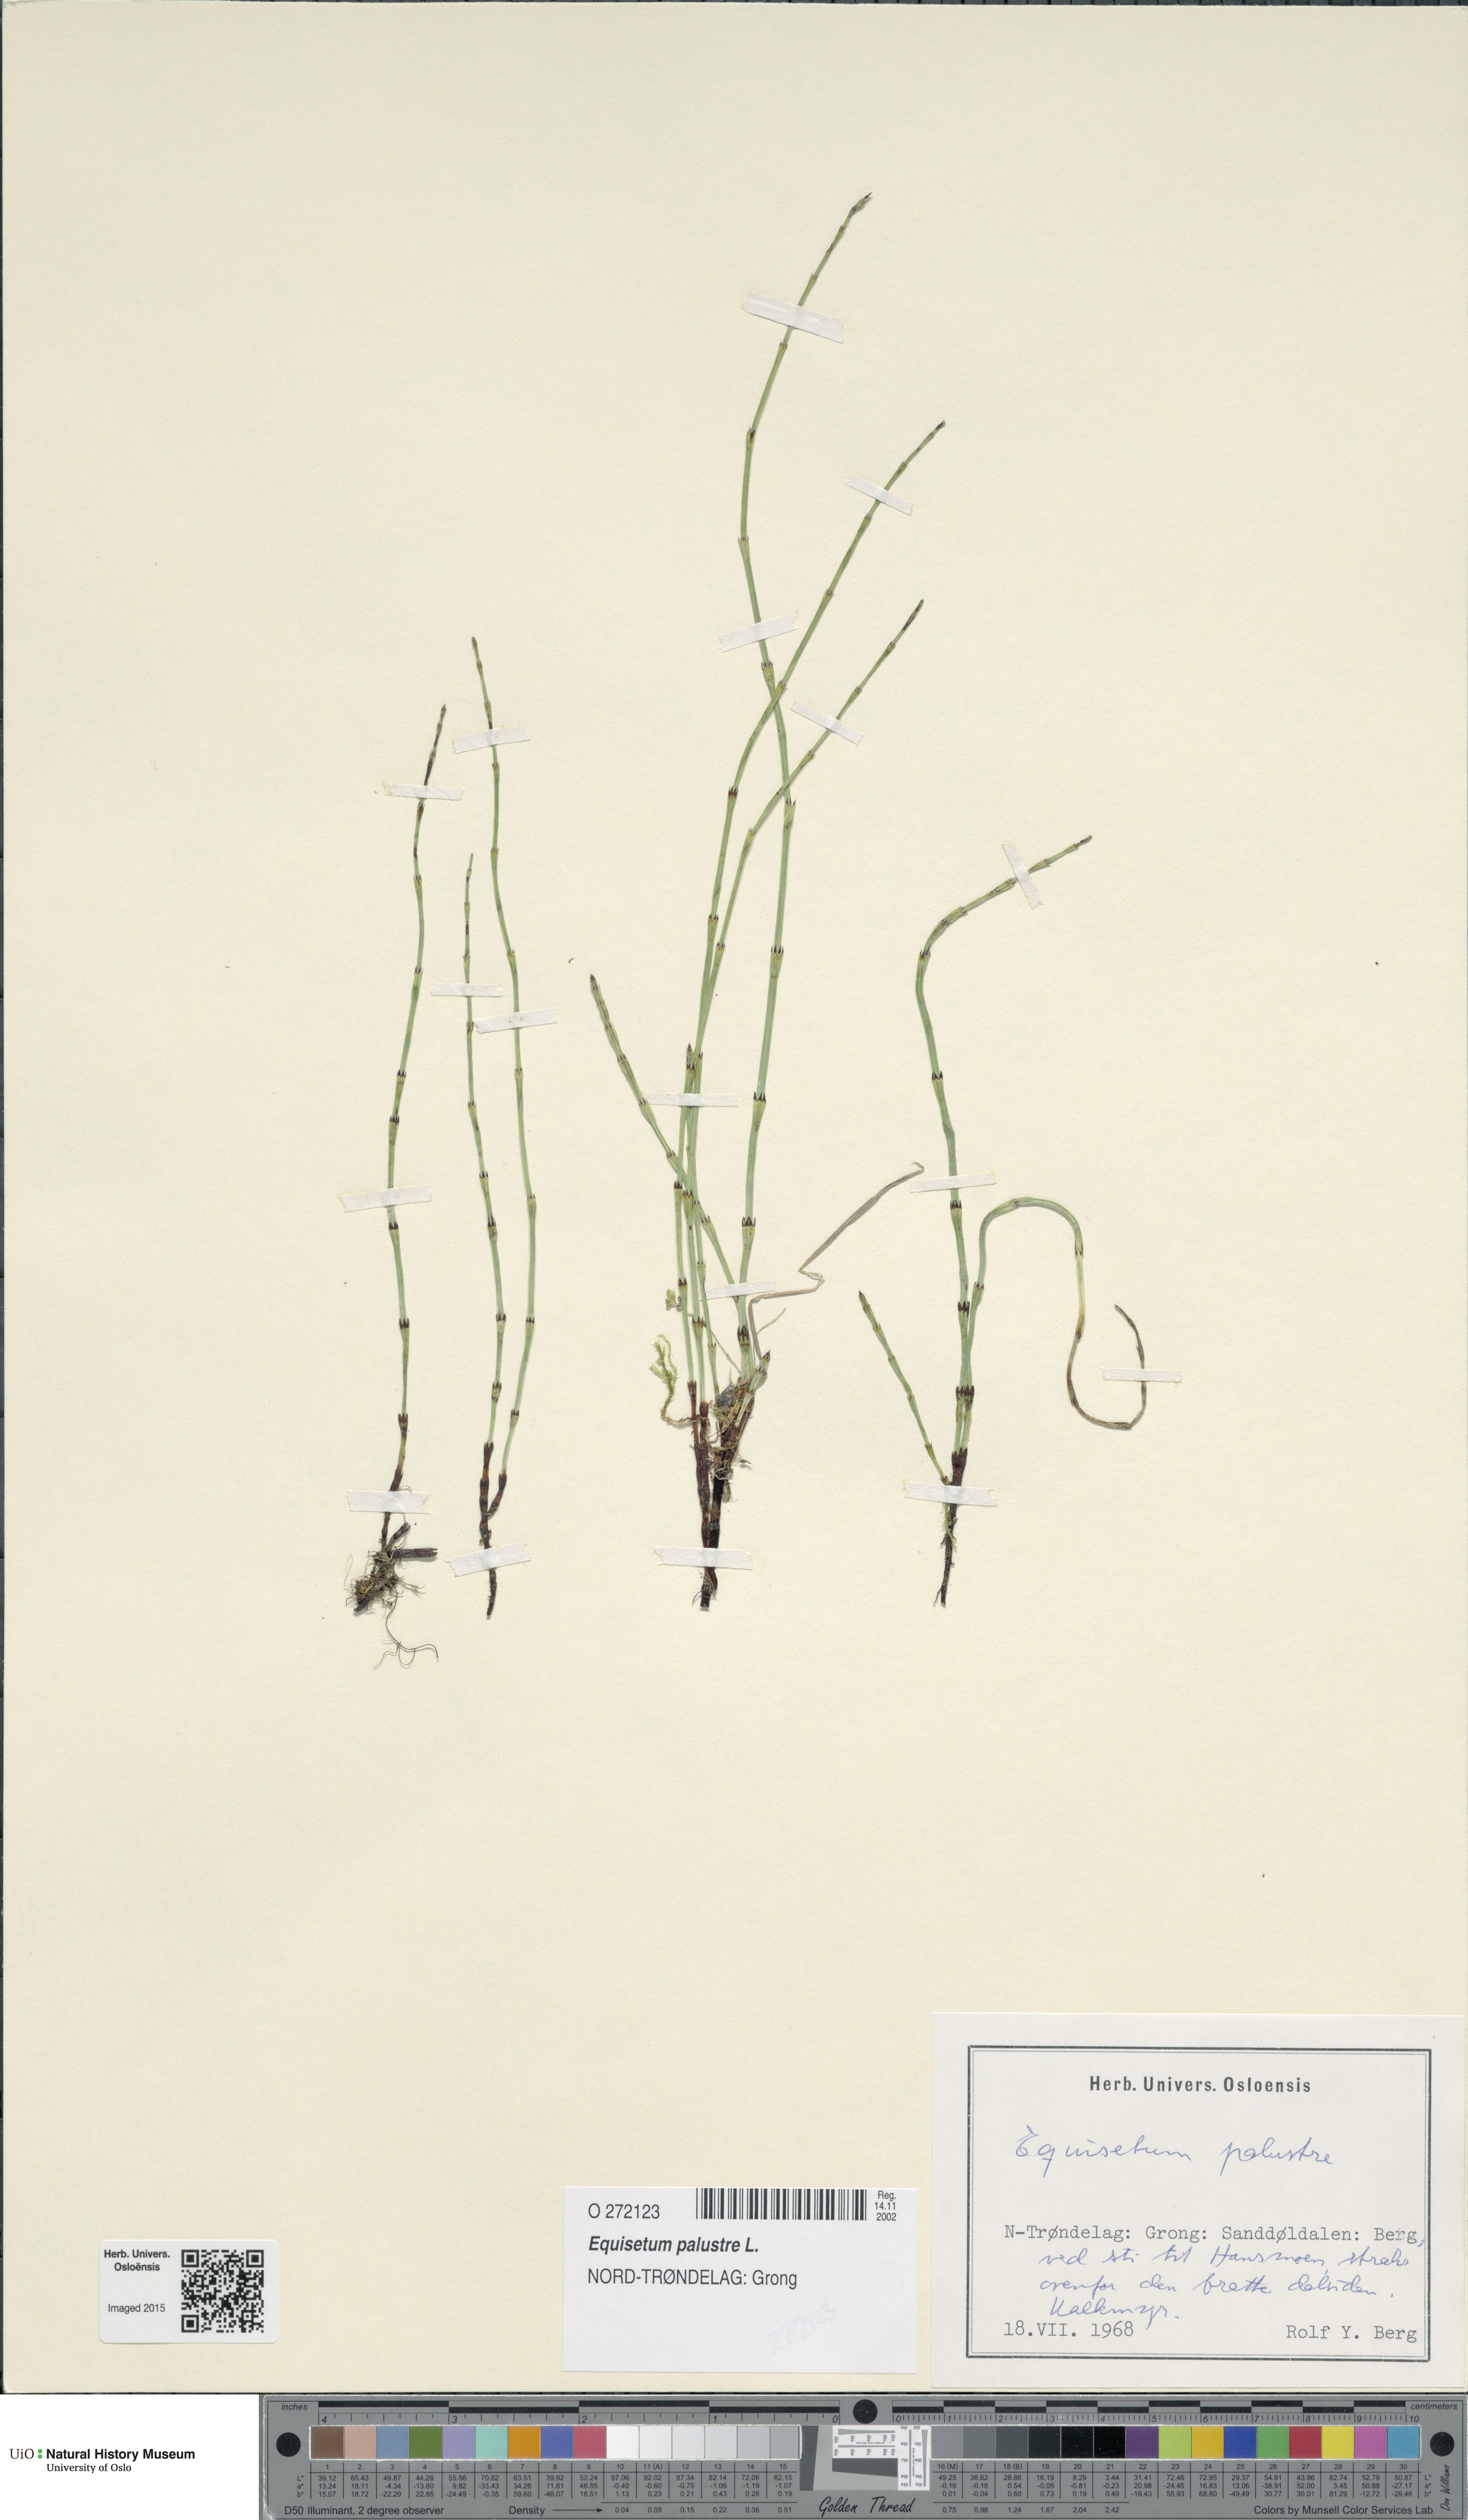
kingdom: Plantae
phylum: Tracheophyta
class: Polypodiopsida
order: Equisetales
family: Equisetaceae
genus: Equisetum
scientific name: Equisetum palustre
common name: Marsh horsetail
